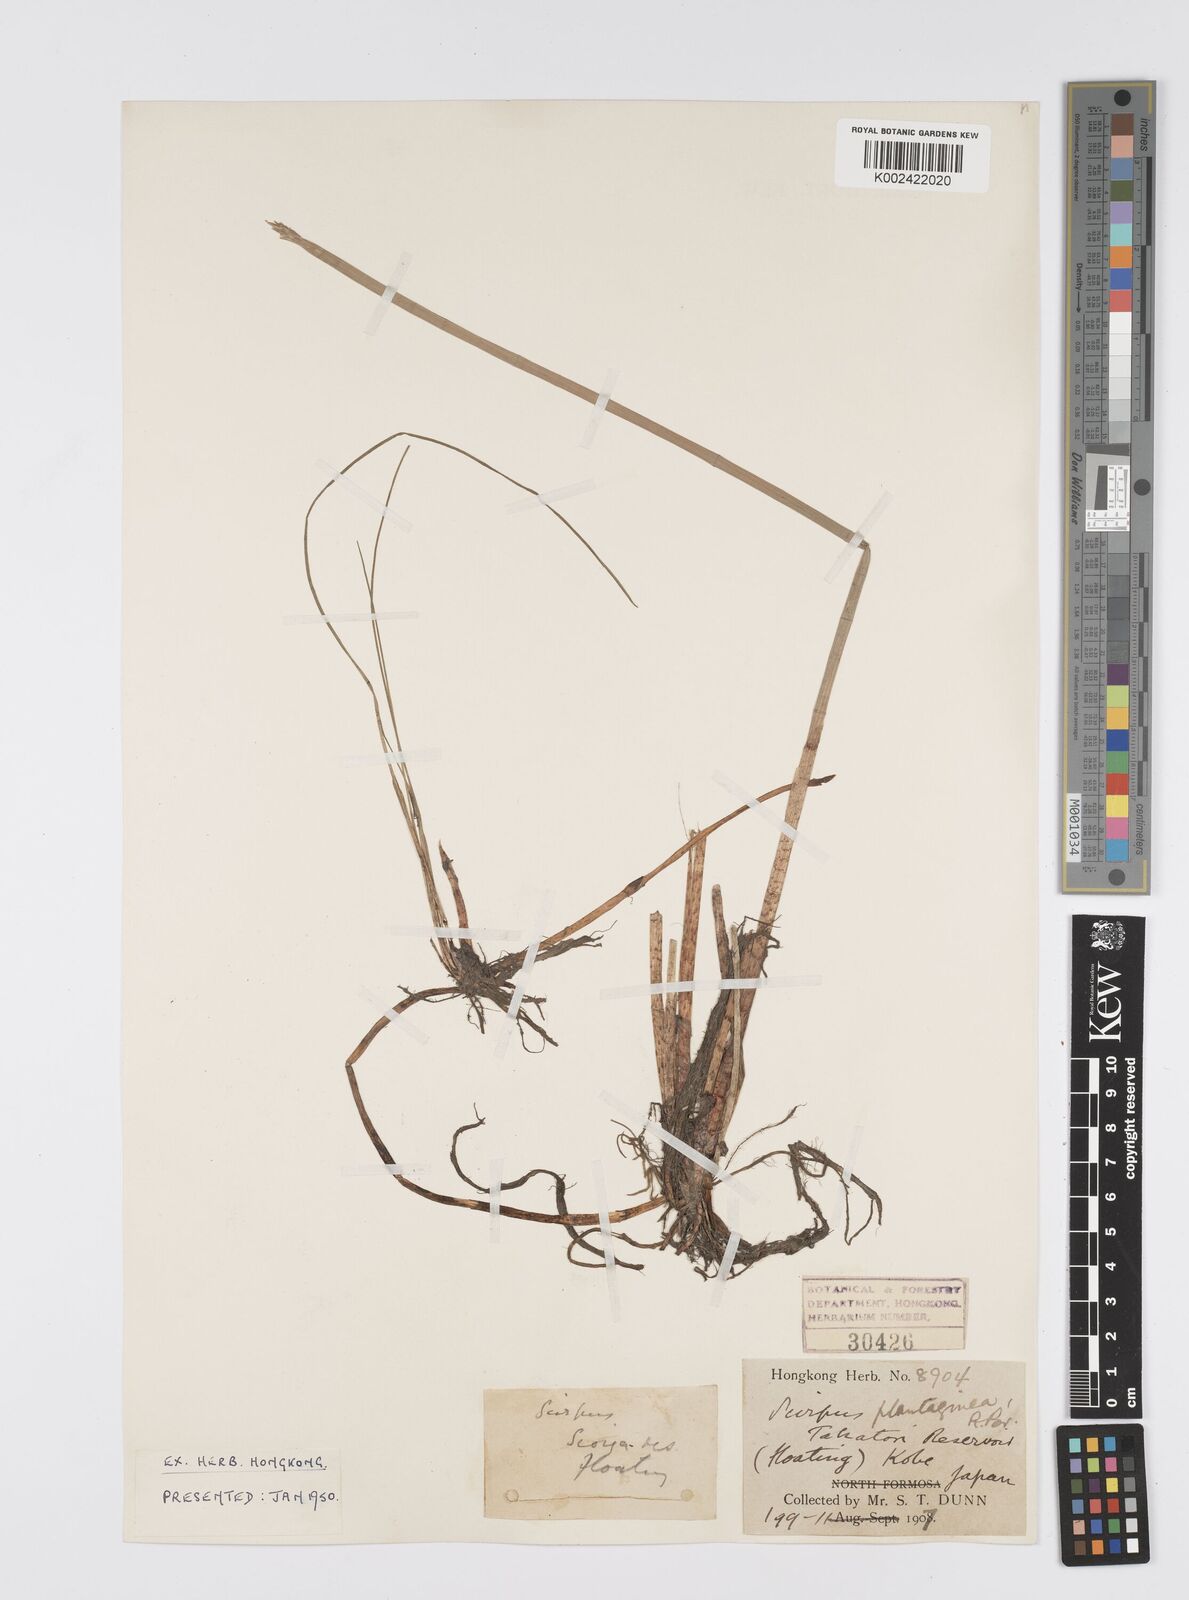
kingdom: Plantae
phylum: Tracheophyta
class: Liliopsida
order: Poales
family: Cyperaceae
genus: Eleocharis
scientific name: Eleocharis dulcis
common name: Chinese water chestnut
